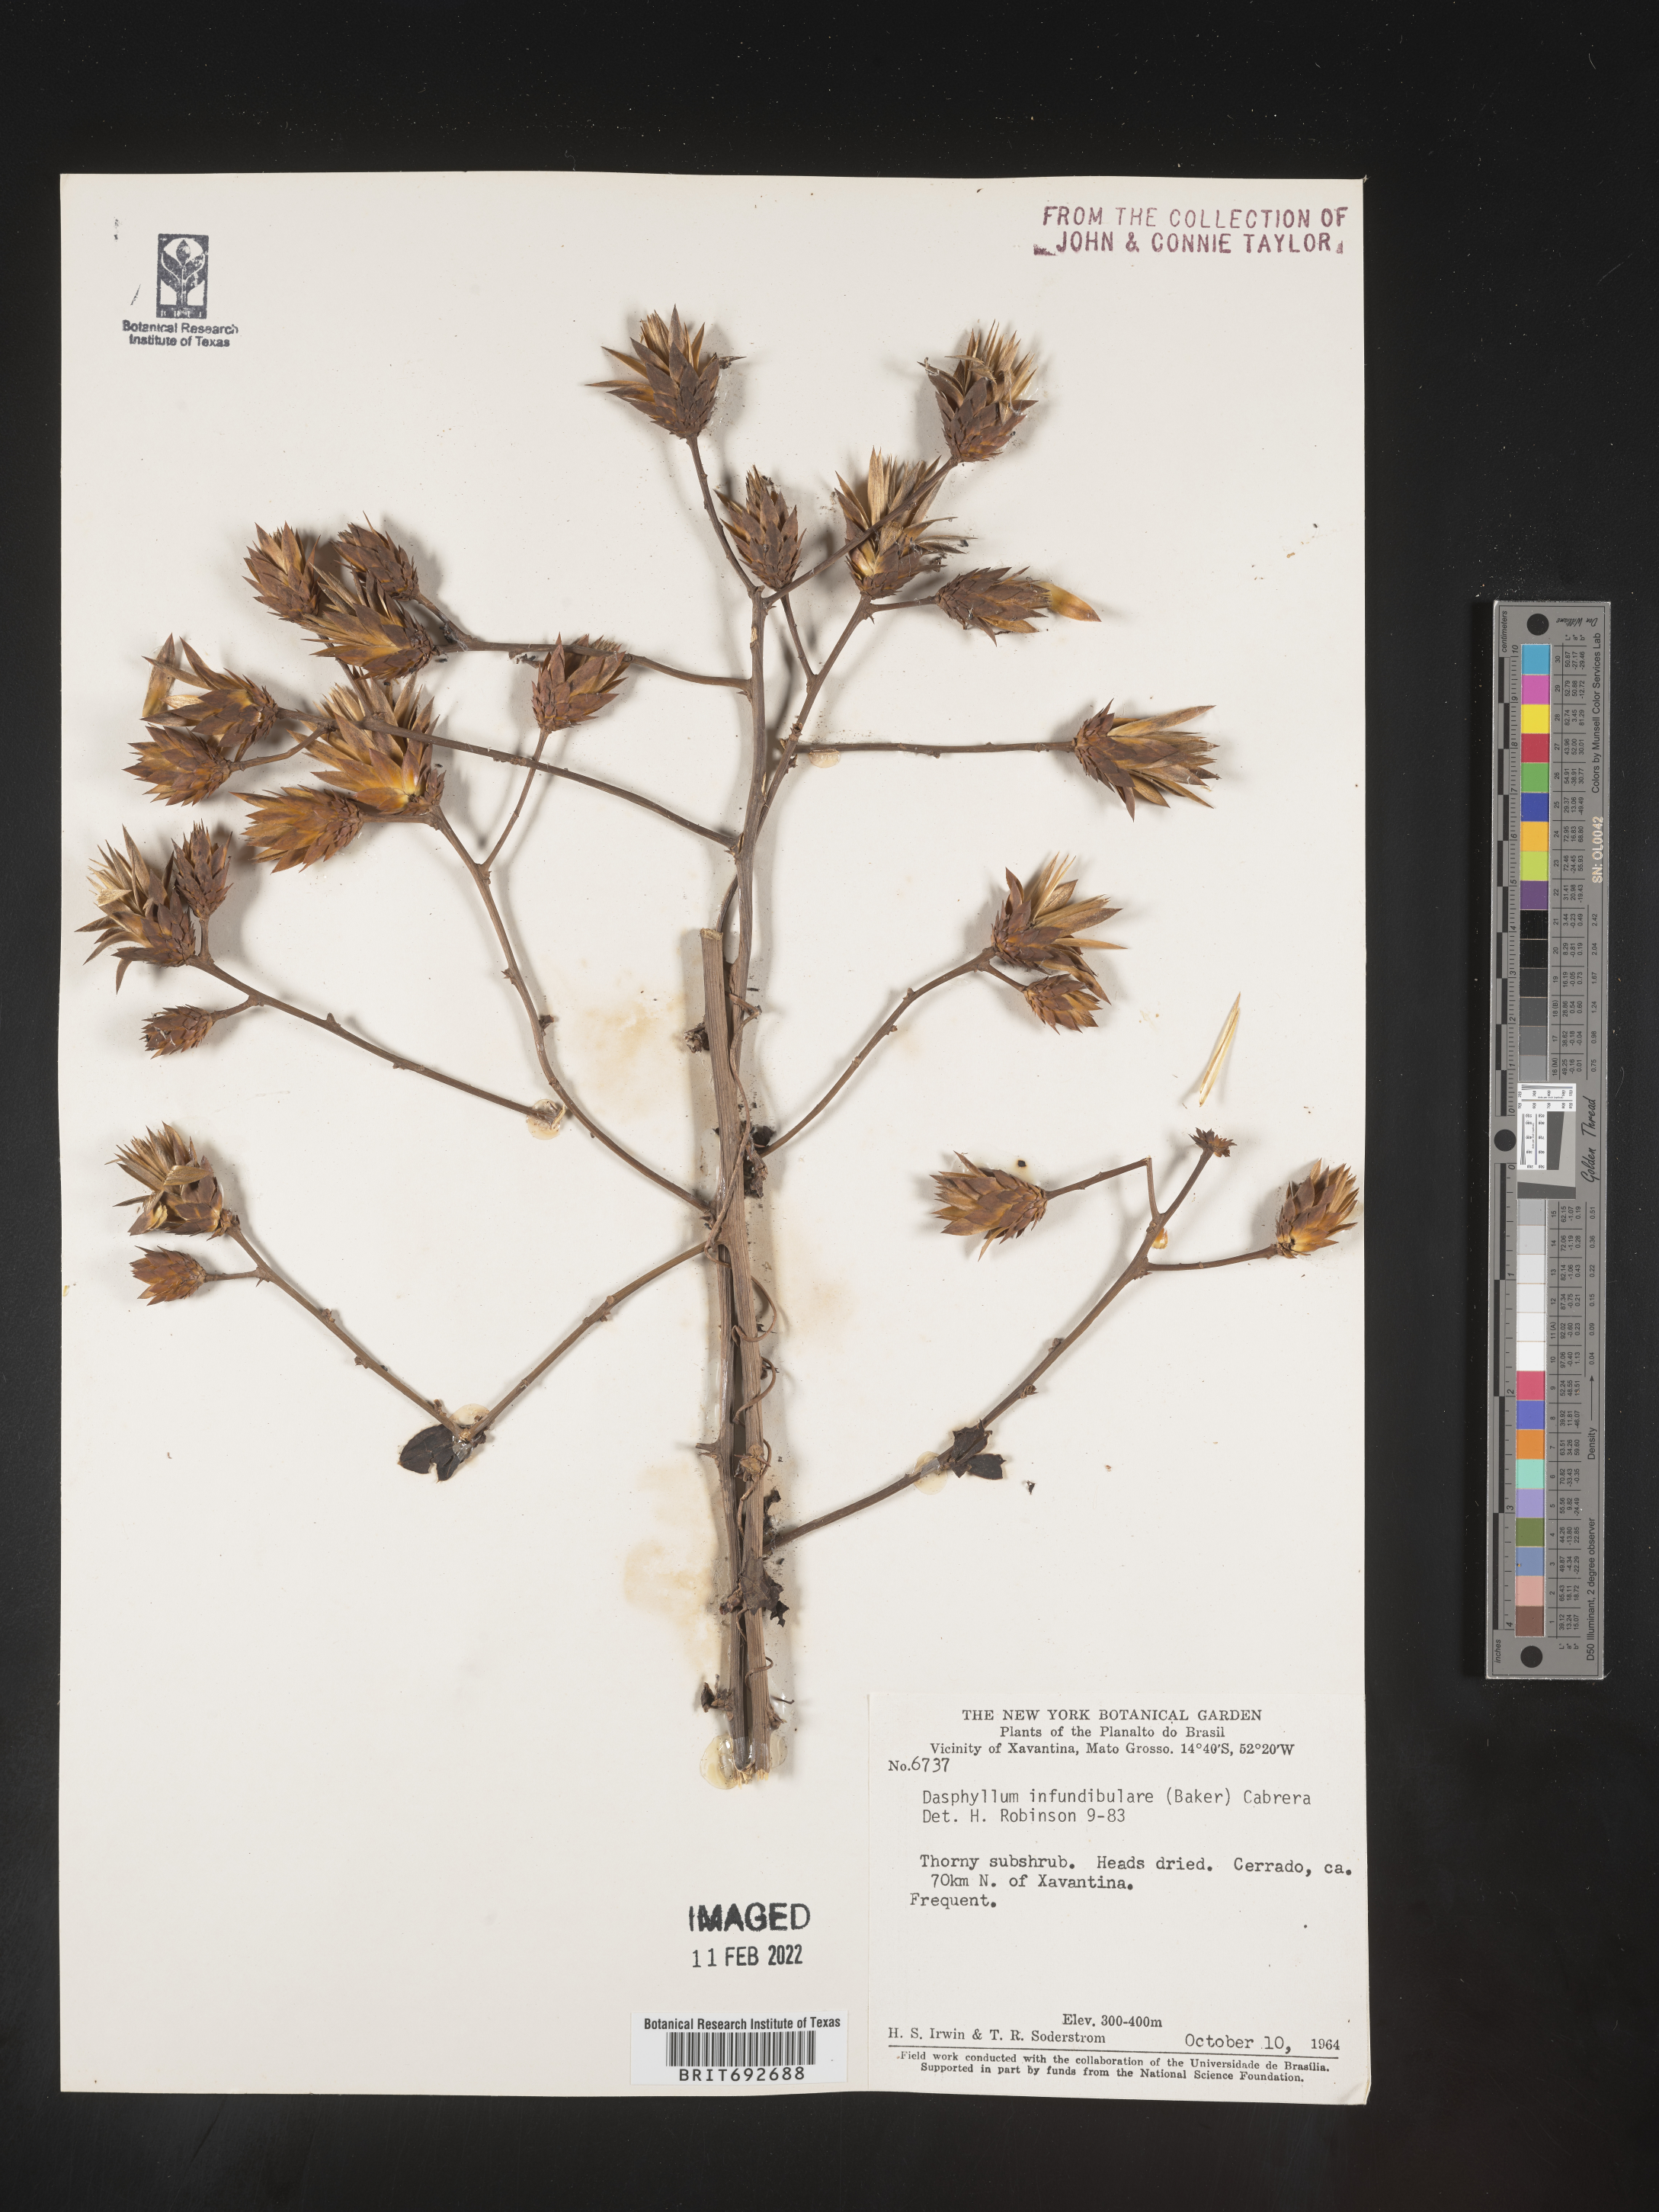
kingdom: Plantae
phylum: Tracheophyta
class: Magnoliopsida
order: Asterales
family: Asteraceae
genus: Dasyphyllum
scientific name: Dasyphyllum
